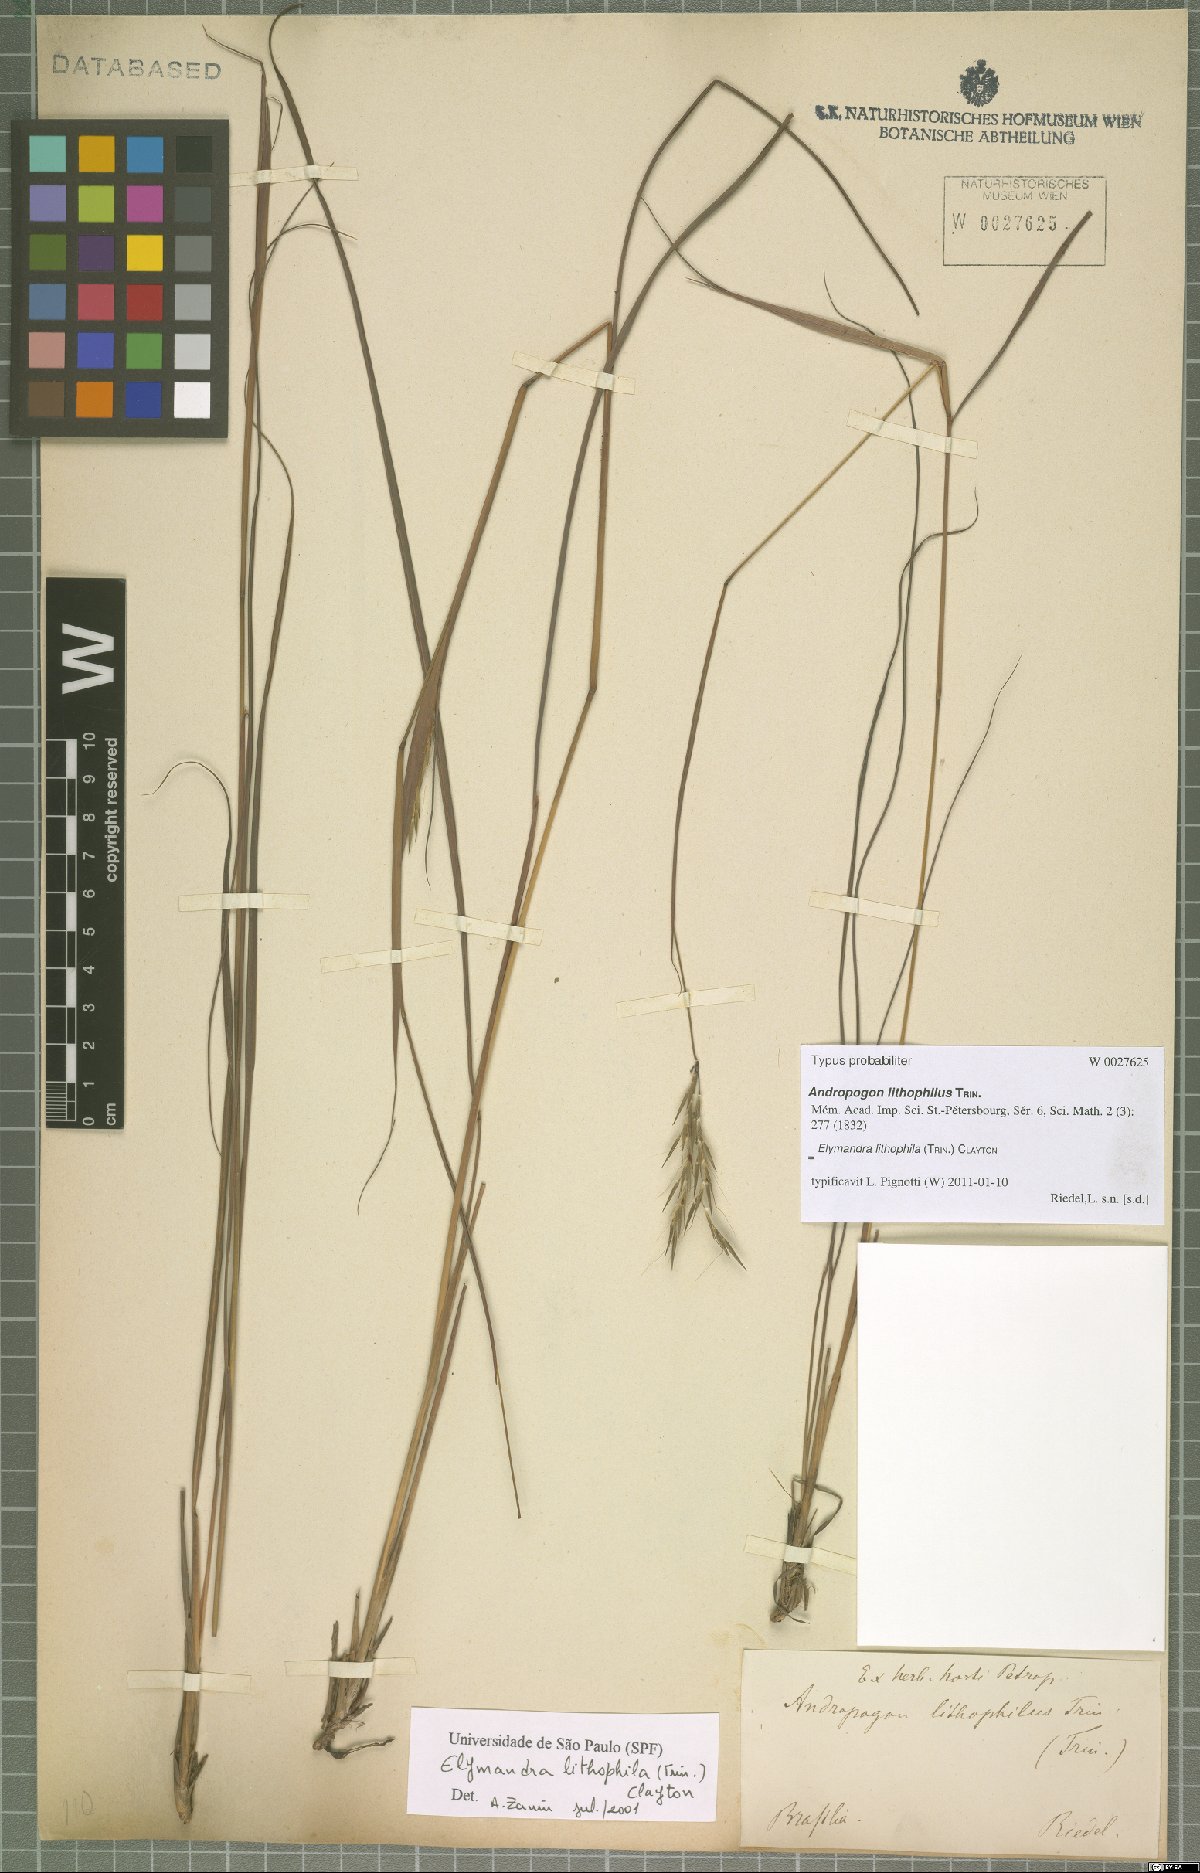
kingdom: Plantae
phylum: Tracheophyta
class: Liliopsida
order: Poales
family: Poaceae
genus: Elymandra
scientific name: Elymandra lithophila
